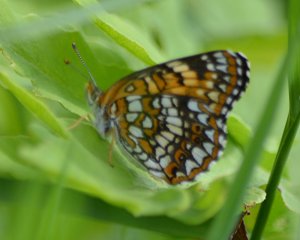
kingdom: Animalia
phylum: Arthropoda
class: Insecta
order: Lepidoptera
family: Nymphalidae
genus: Chlosyne
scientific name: Chlosyne harrisii
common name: Harris's Checkerspot
